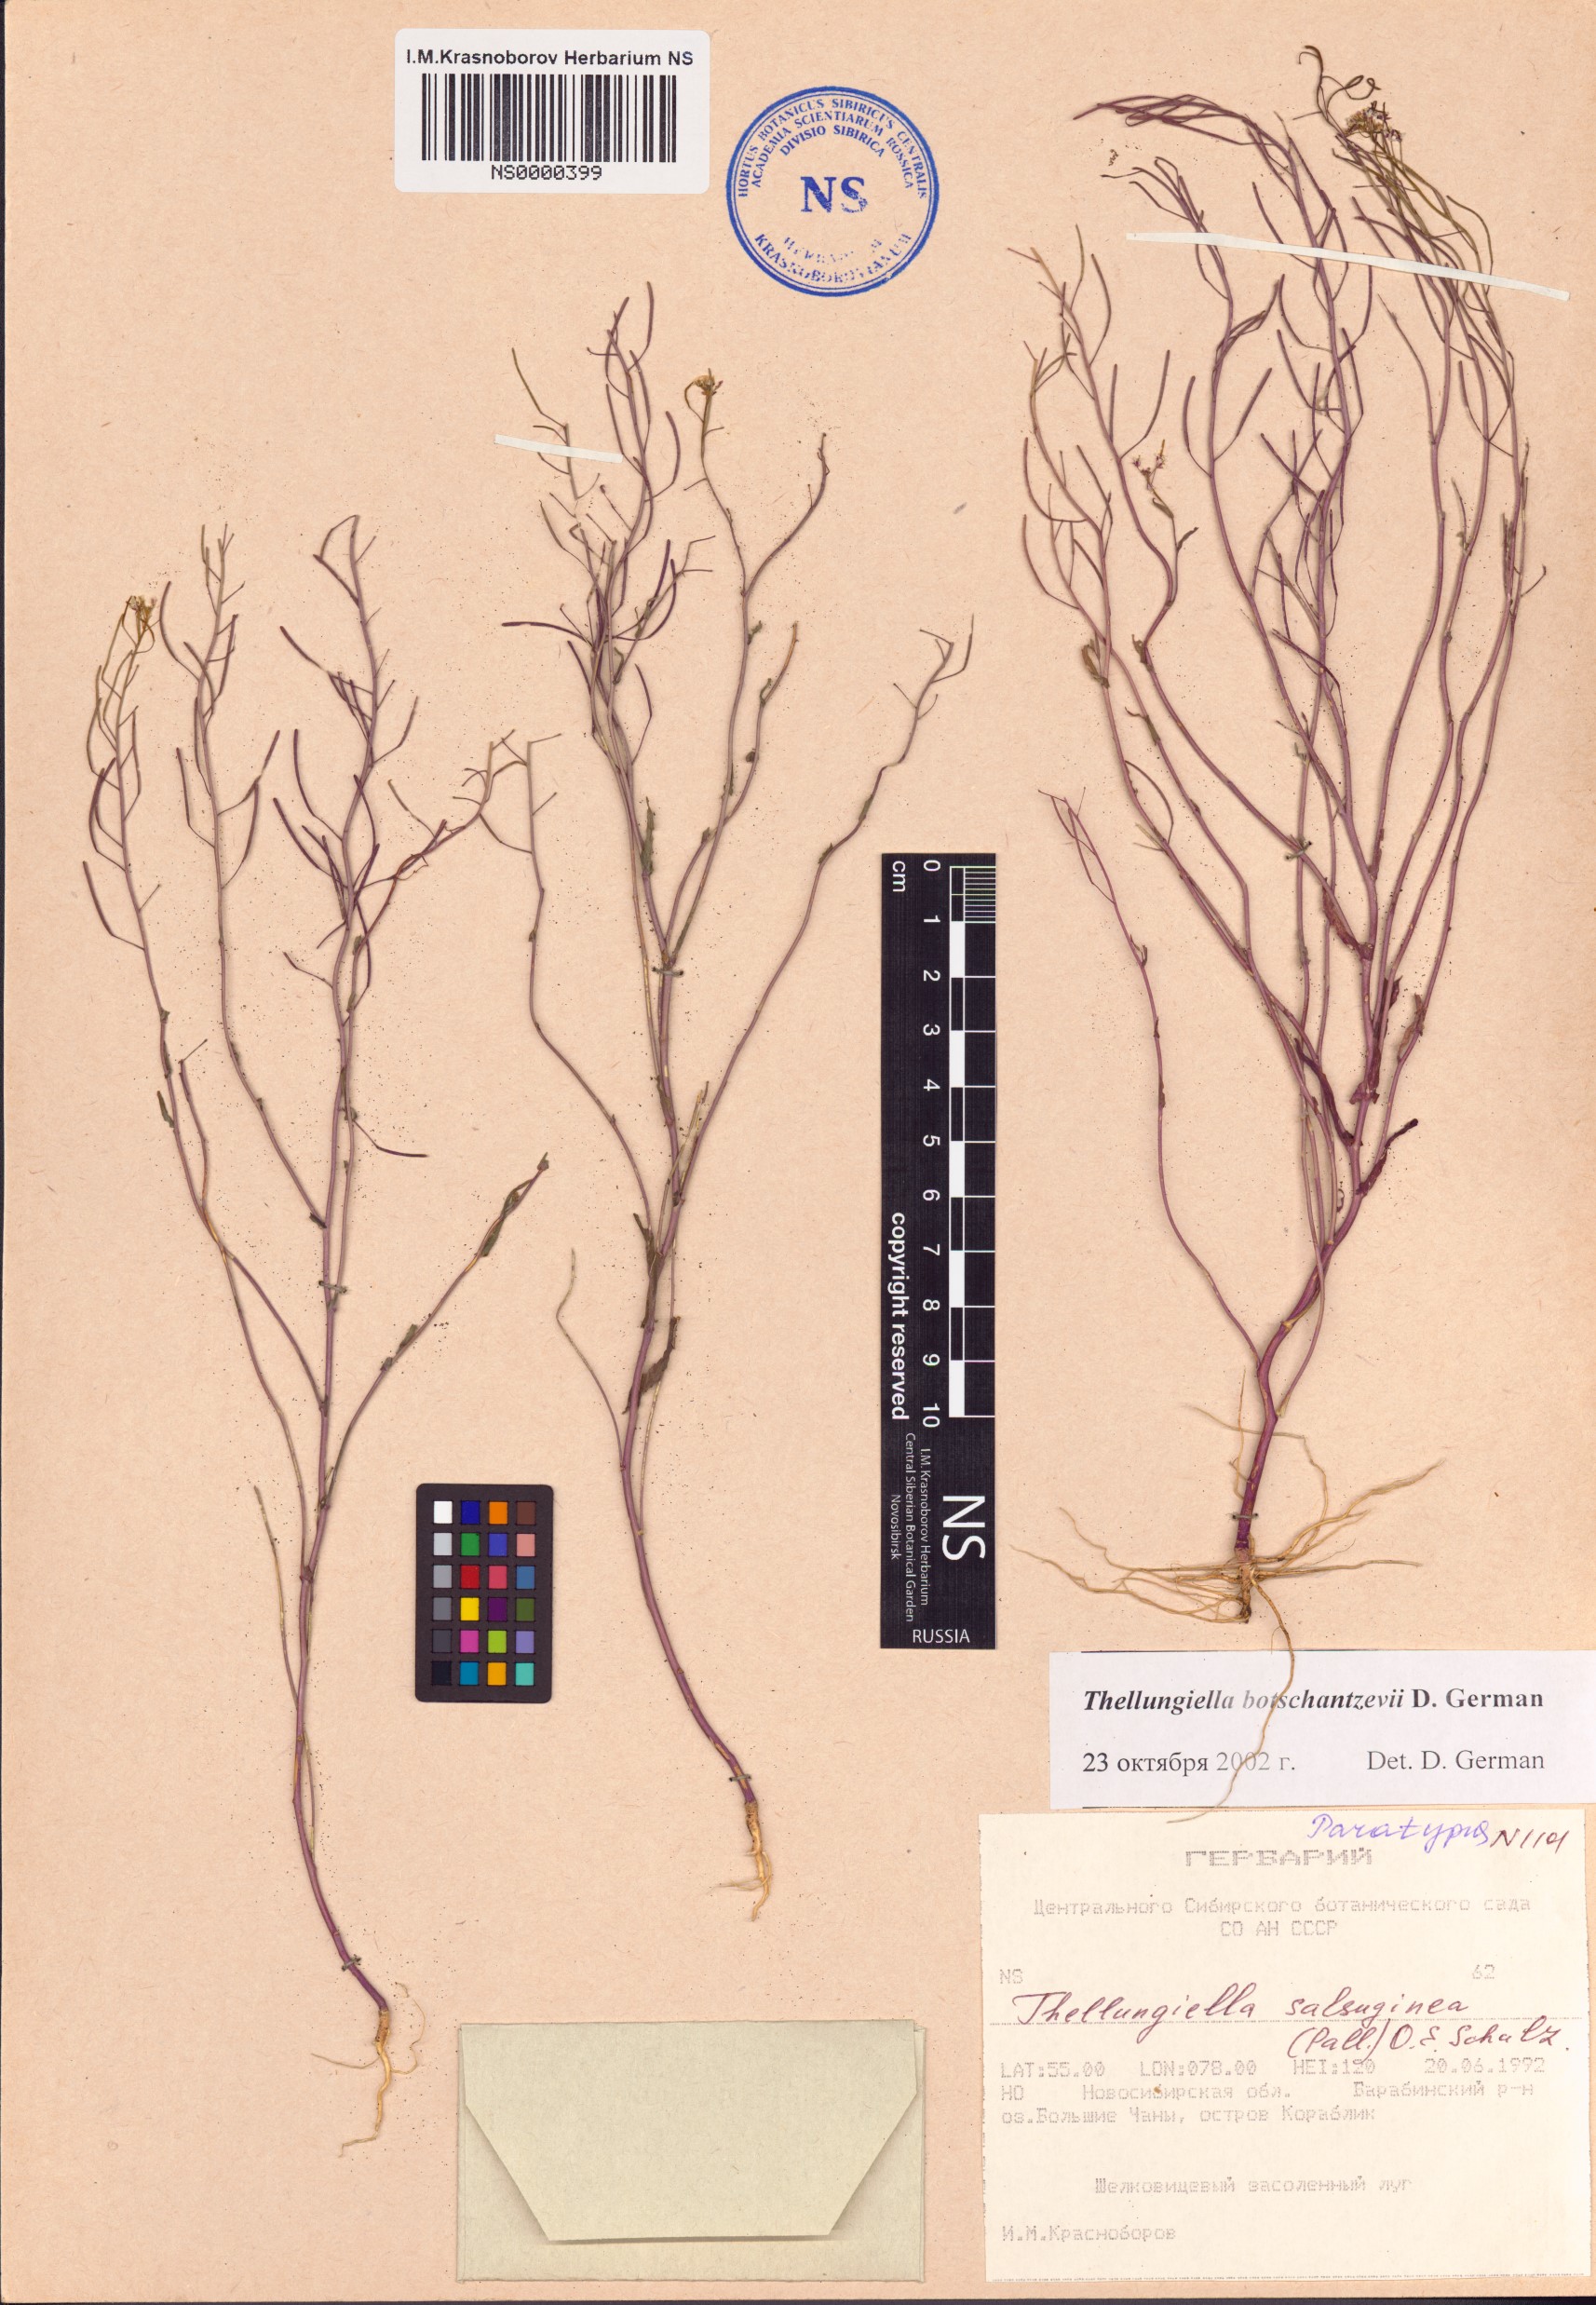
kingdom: Plantae
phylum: Tracheophyta
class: Magnoliopsida
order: Brassicales
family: Brassicaceae
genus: Eutrema
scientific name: Eutrema botschantzevii
